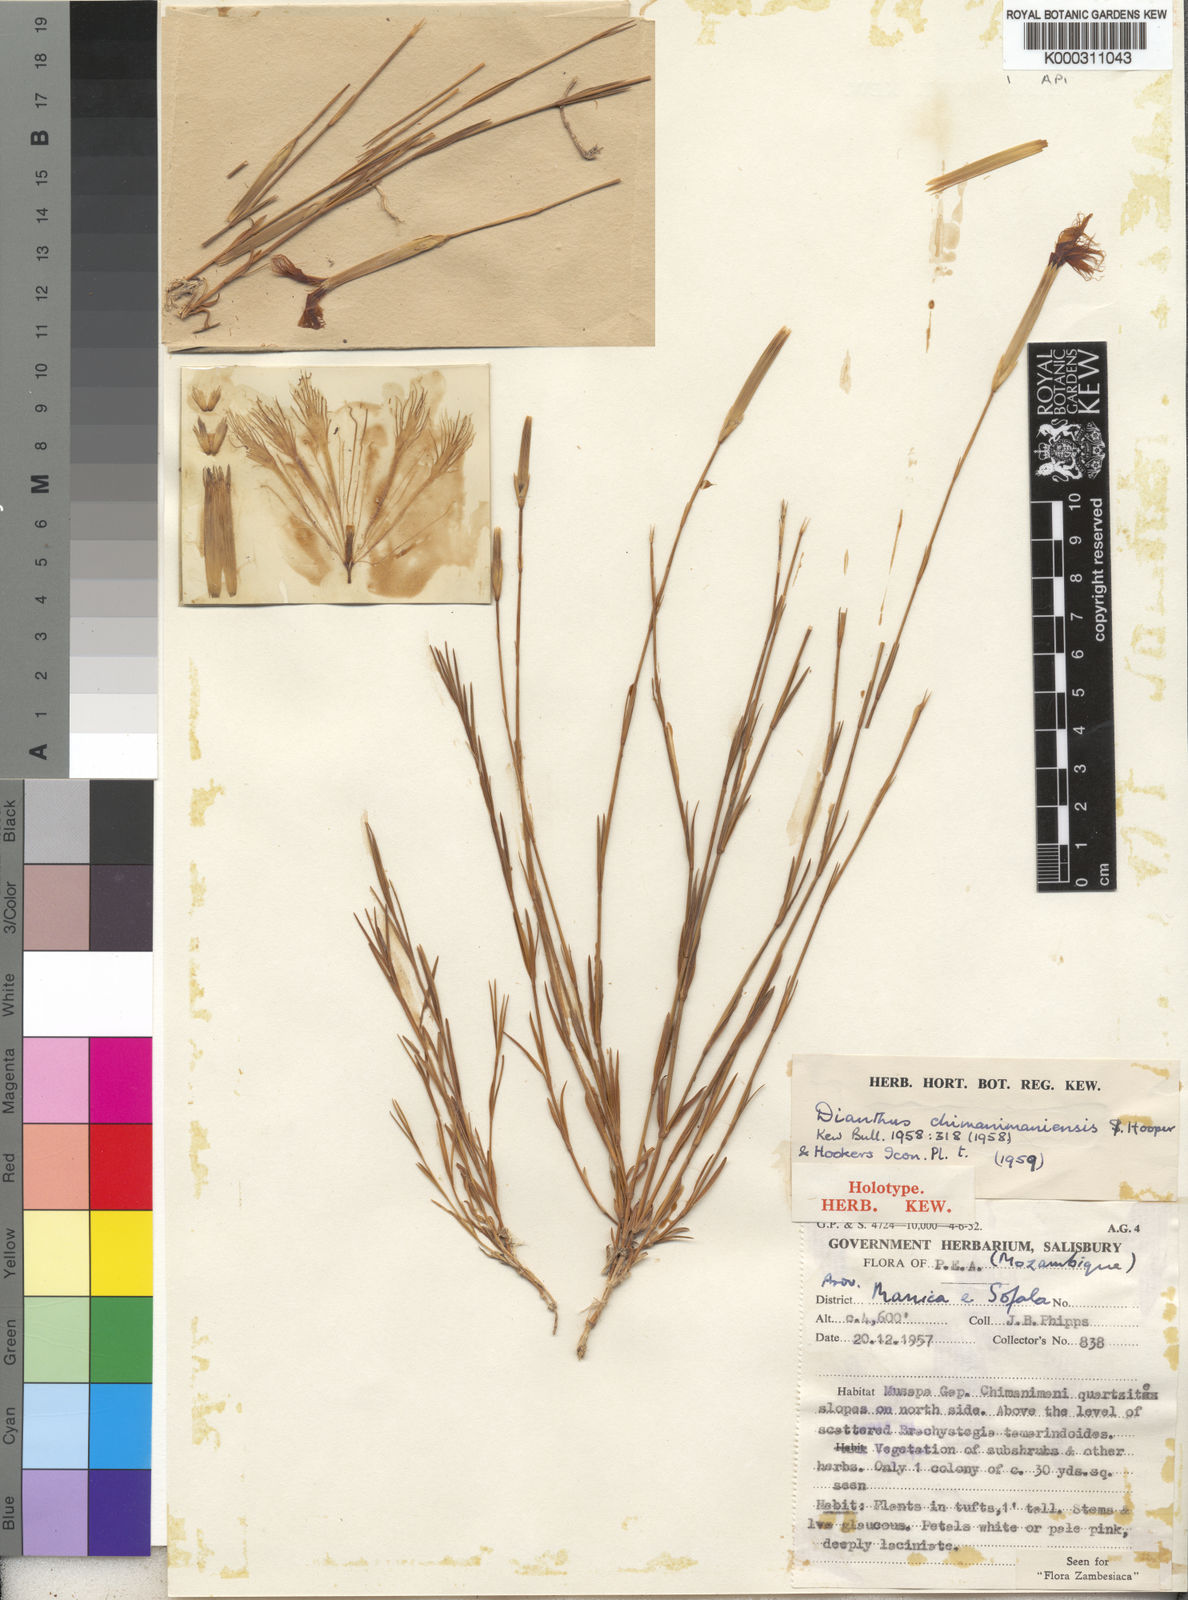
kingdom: Plantae
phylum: Tracheophyta
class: Magnoliopsida
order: Caryophyllales
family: Caryophyllaceae
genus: Dianthus
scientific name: Dianthus chimanimaniensis
